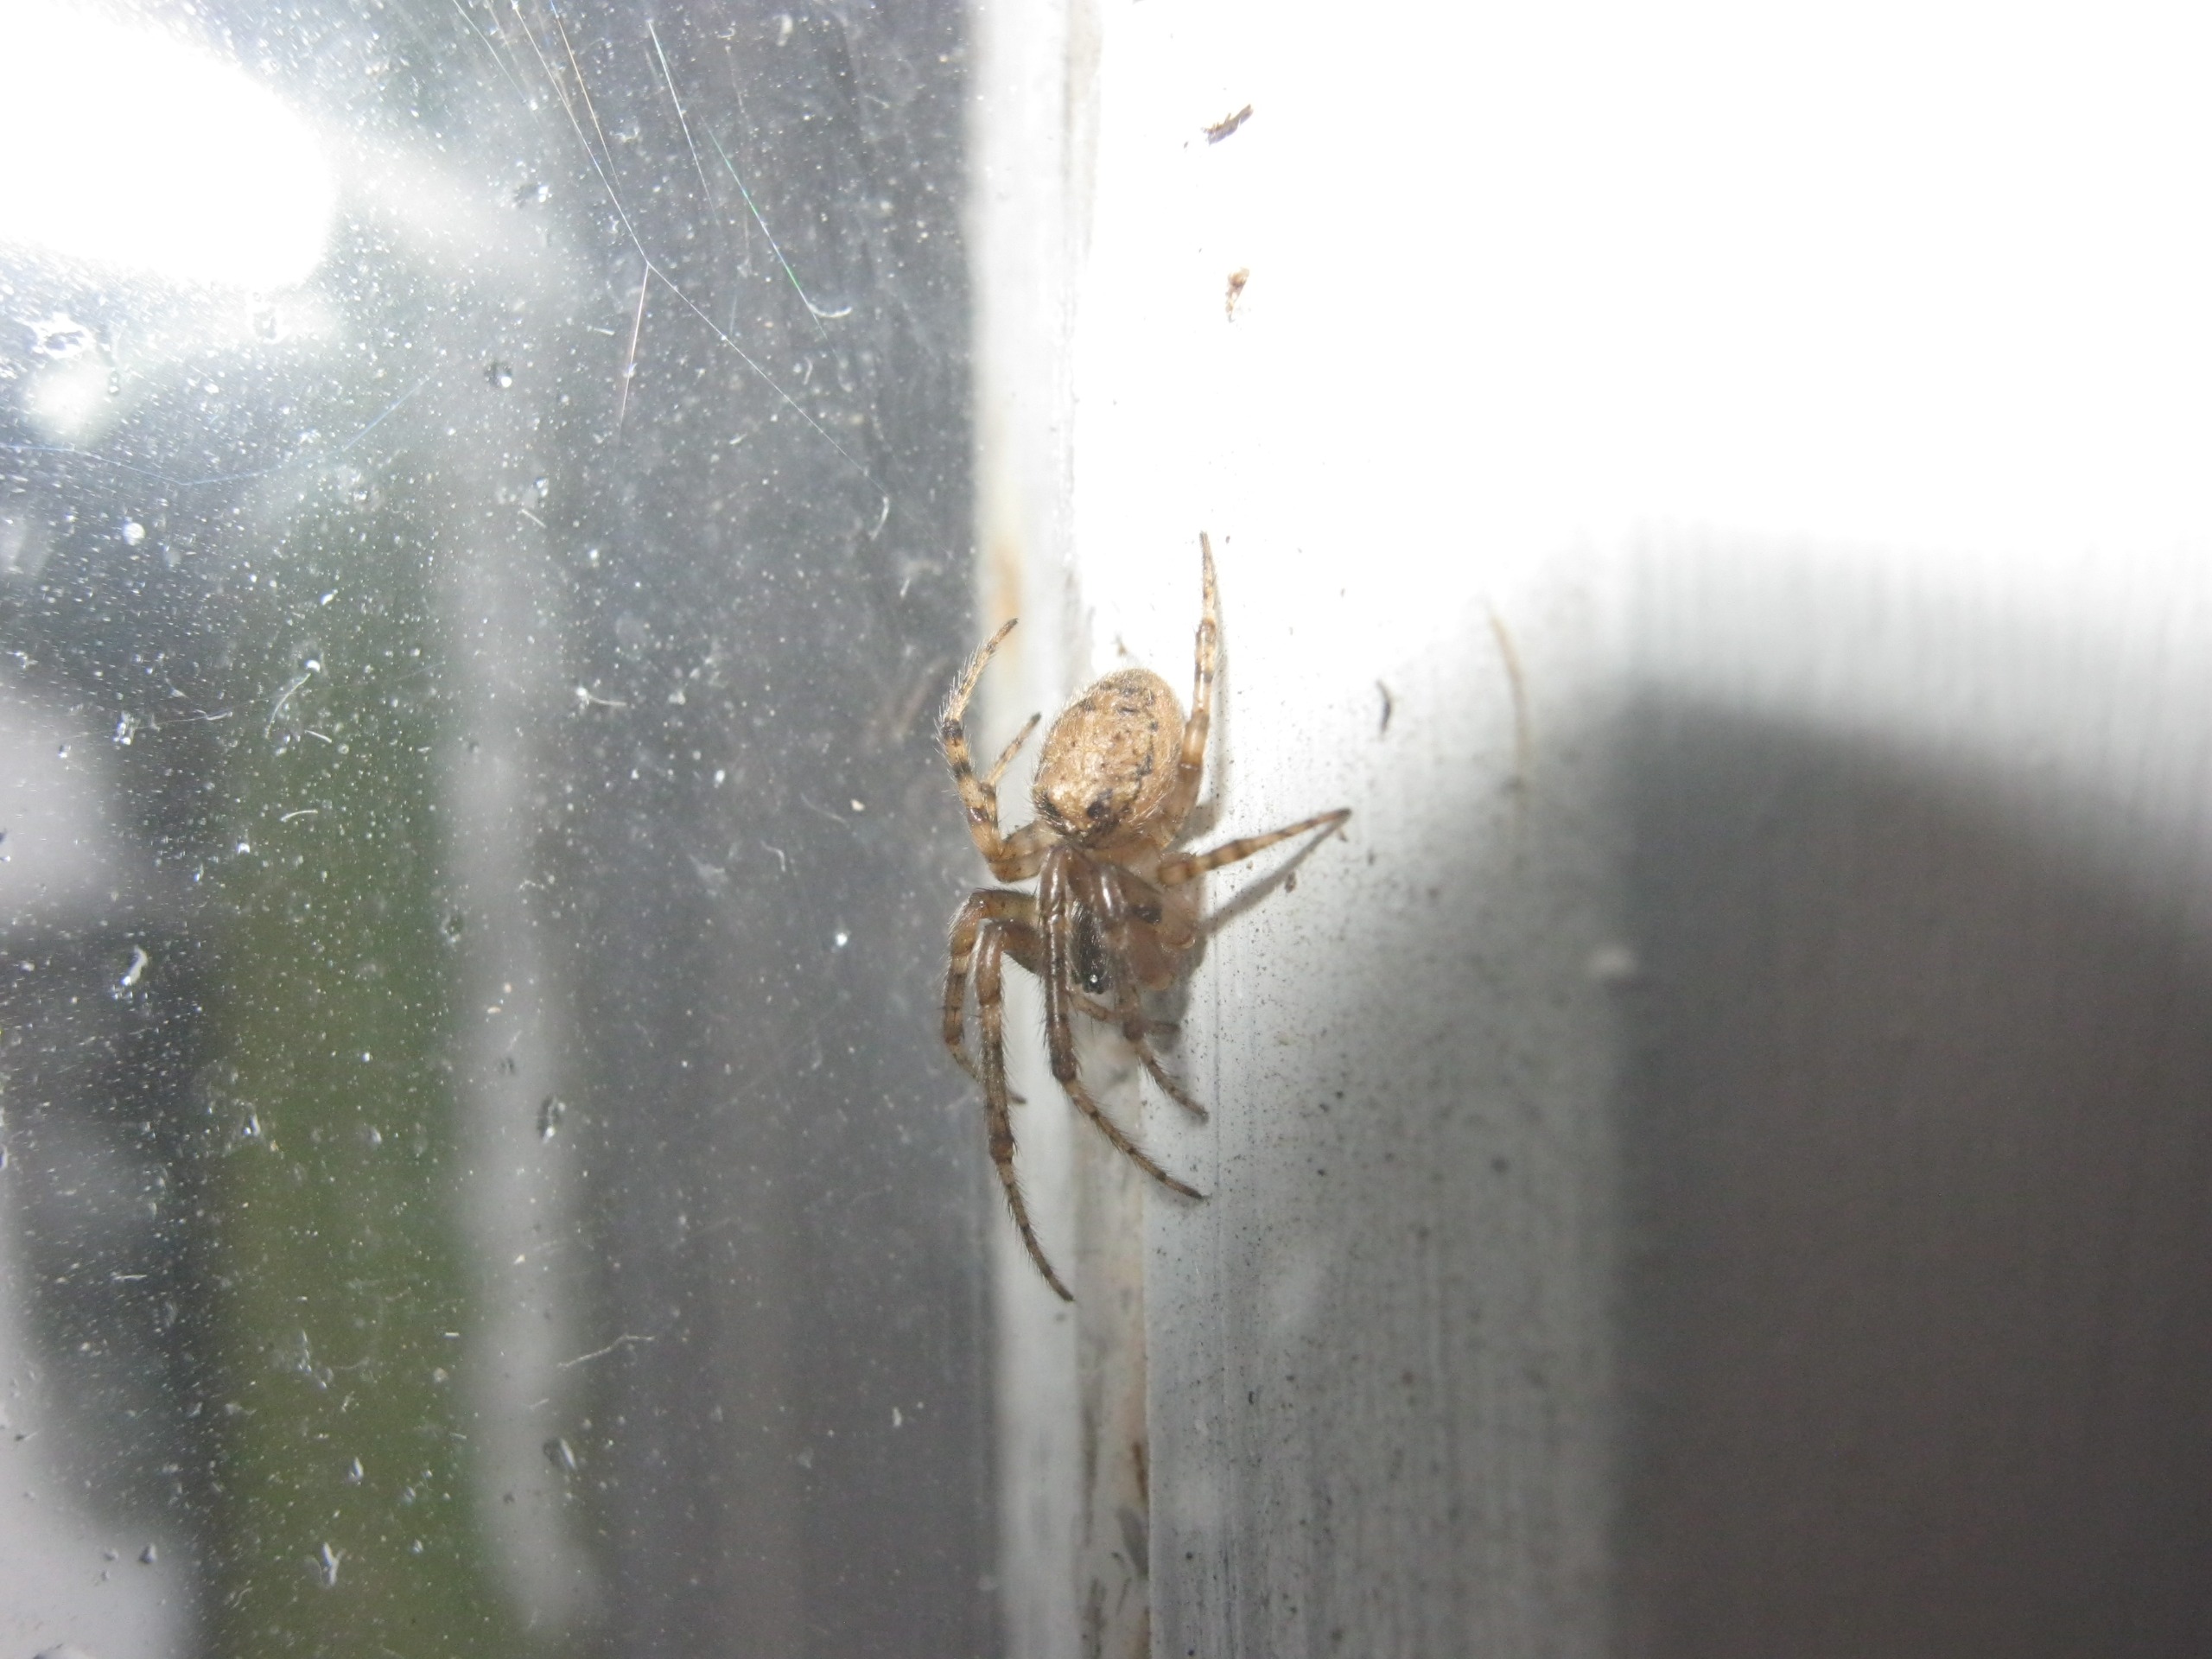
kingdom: Animalia
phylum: Arthropoda
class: Arachnida
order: Araneae
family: Araneidae
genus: Zygiella
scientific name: Zygiella x-notata
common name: Grå sektoredderkop
